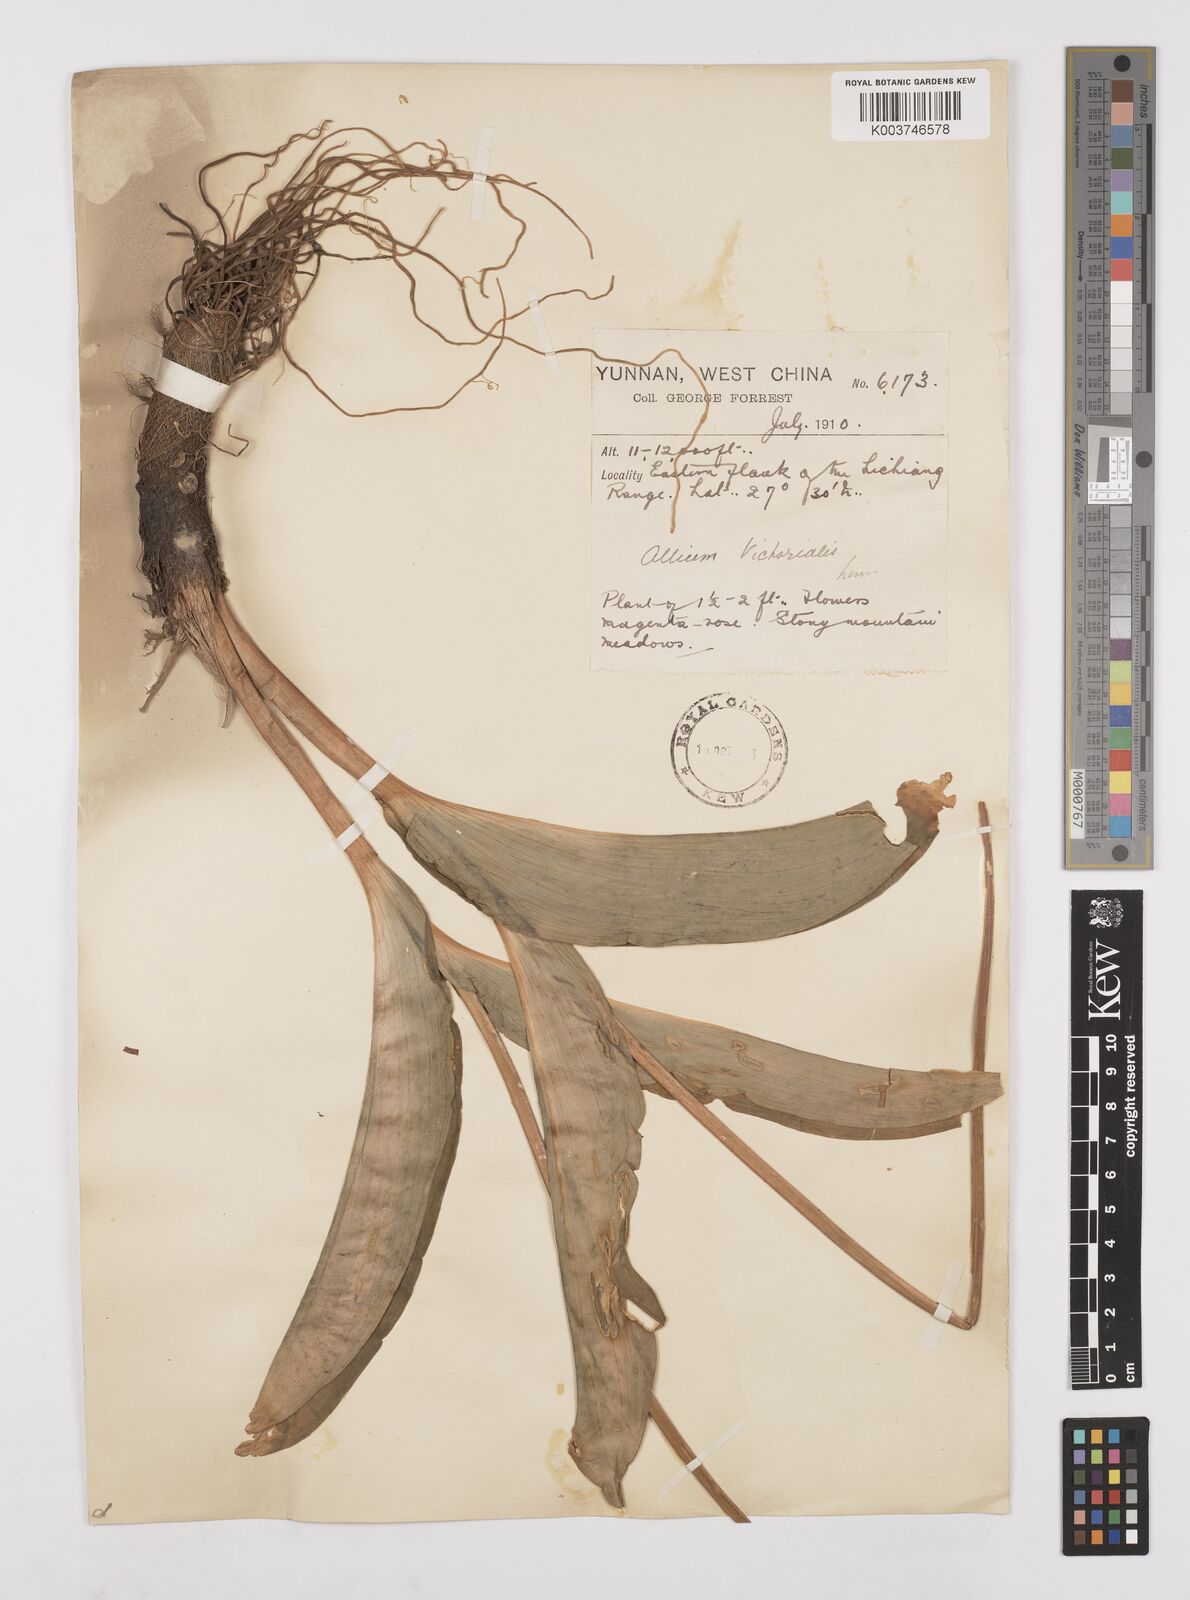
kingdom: Plantae
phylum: Tracheophyta
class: Liliopsida
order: Asparagales
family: Amaryllidaceae
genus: Allium
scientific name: Allium victorialis
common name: Alpine leek
